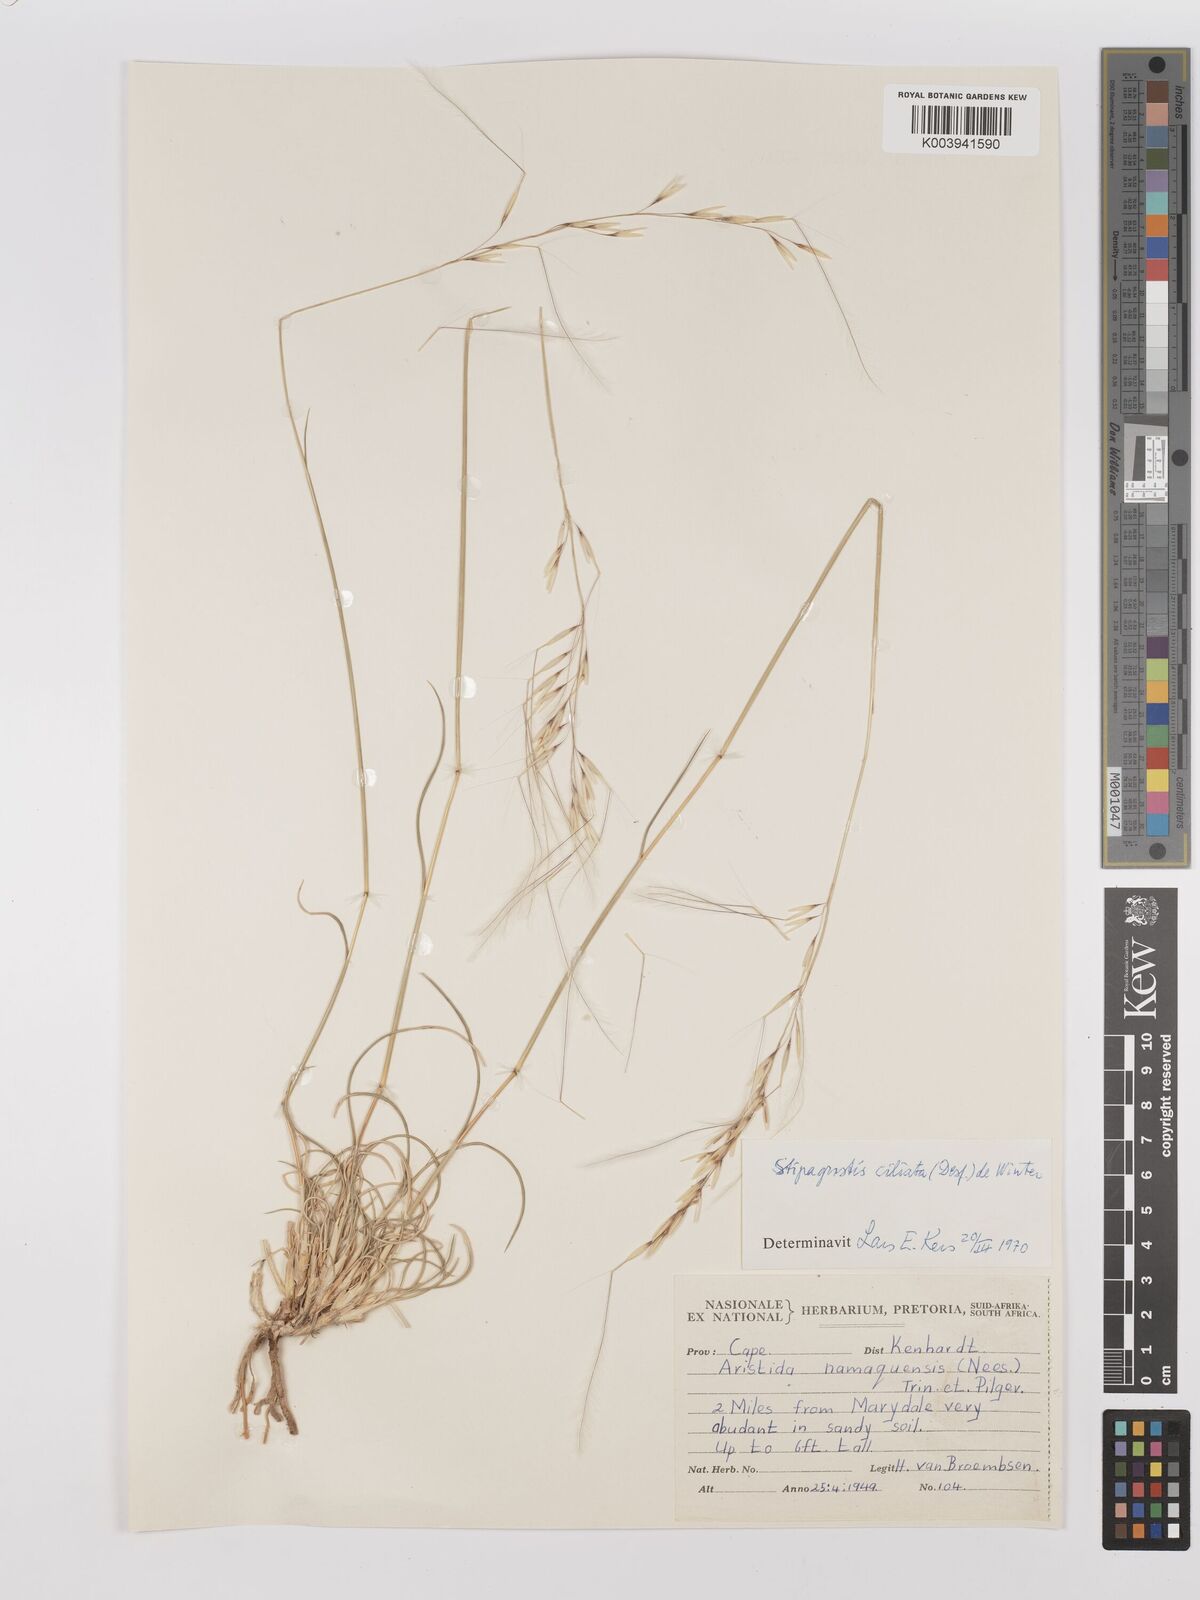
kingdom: Plantae
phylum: Tracheophyta
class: Liliopsida
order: Poales
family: Poaceae
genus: Stipagrostis
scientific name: Stipagrostis ciliata
